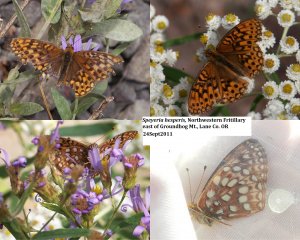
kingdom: Animalia
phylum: Arthropoda
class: Insecta
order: Lepidoptera
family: Nymphalidae
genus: Speyeria
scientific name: Speyeria atlantis
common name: Northwestern Fritillary
